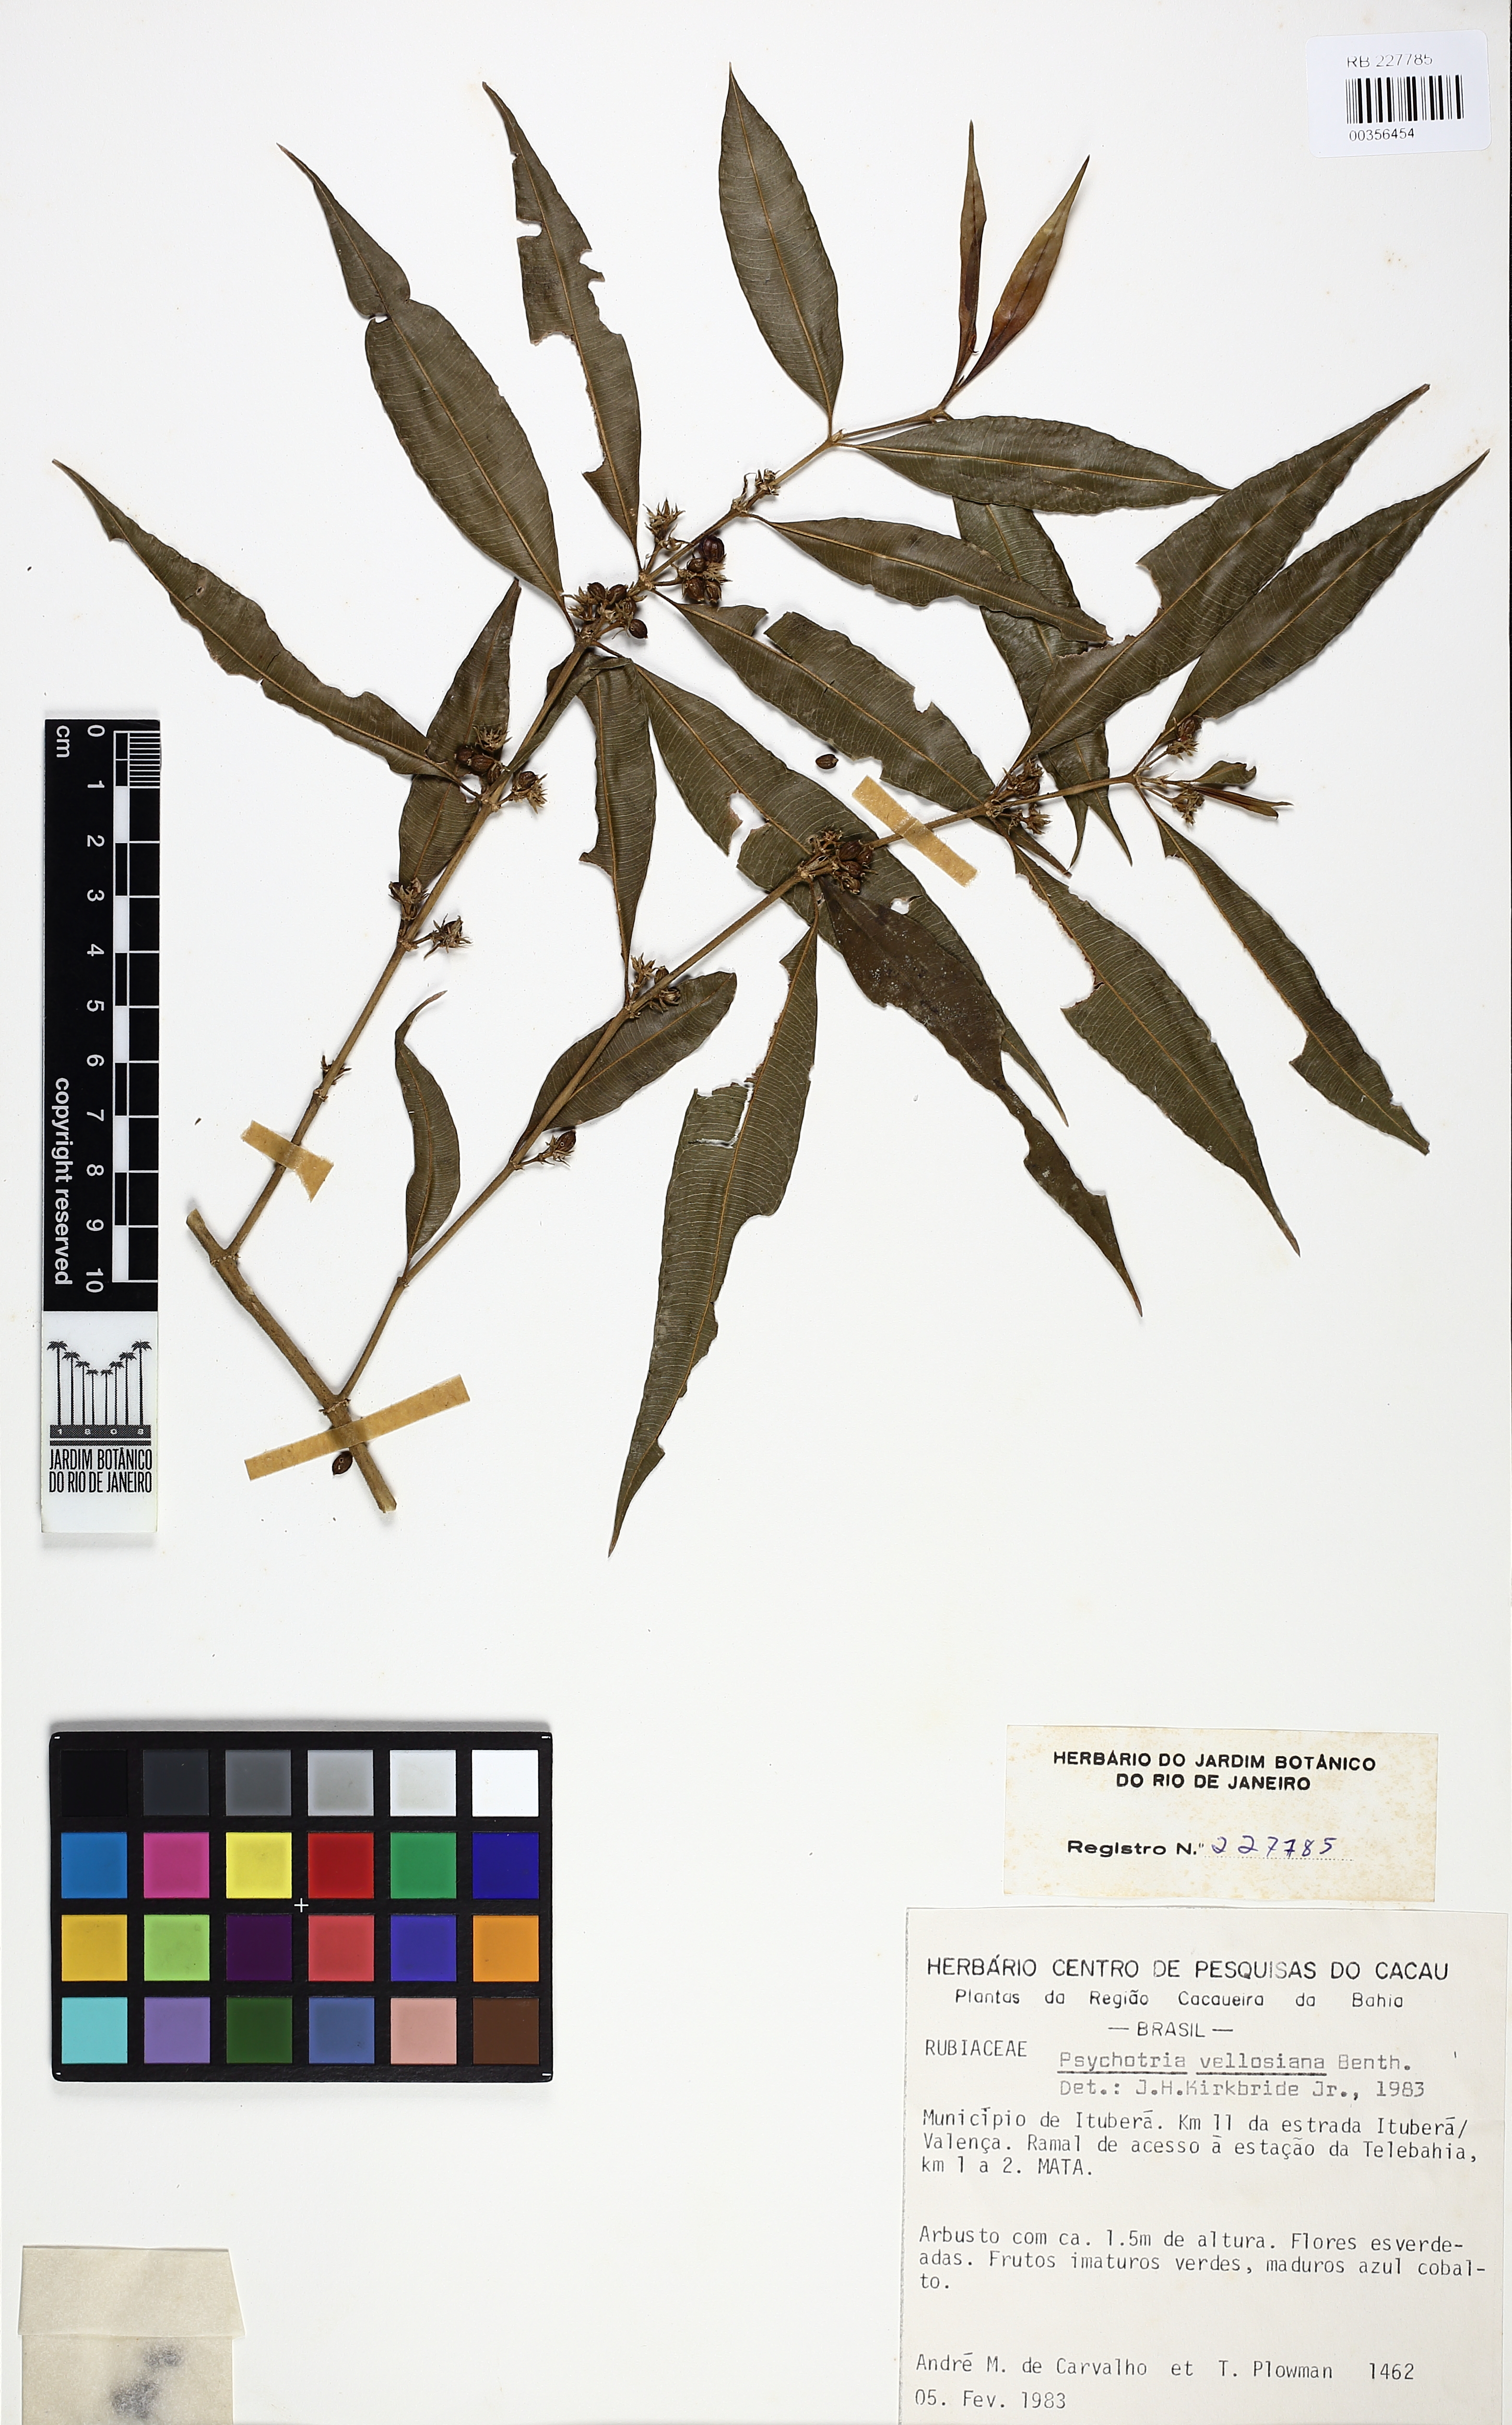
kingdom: Plantae
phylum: Tracheophyta
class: Magnoliopsida
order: Gentianales
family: Rubiaceae
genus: Palicourea
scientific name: Palicourea sessilis
